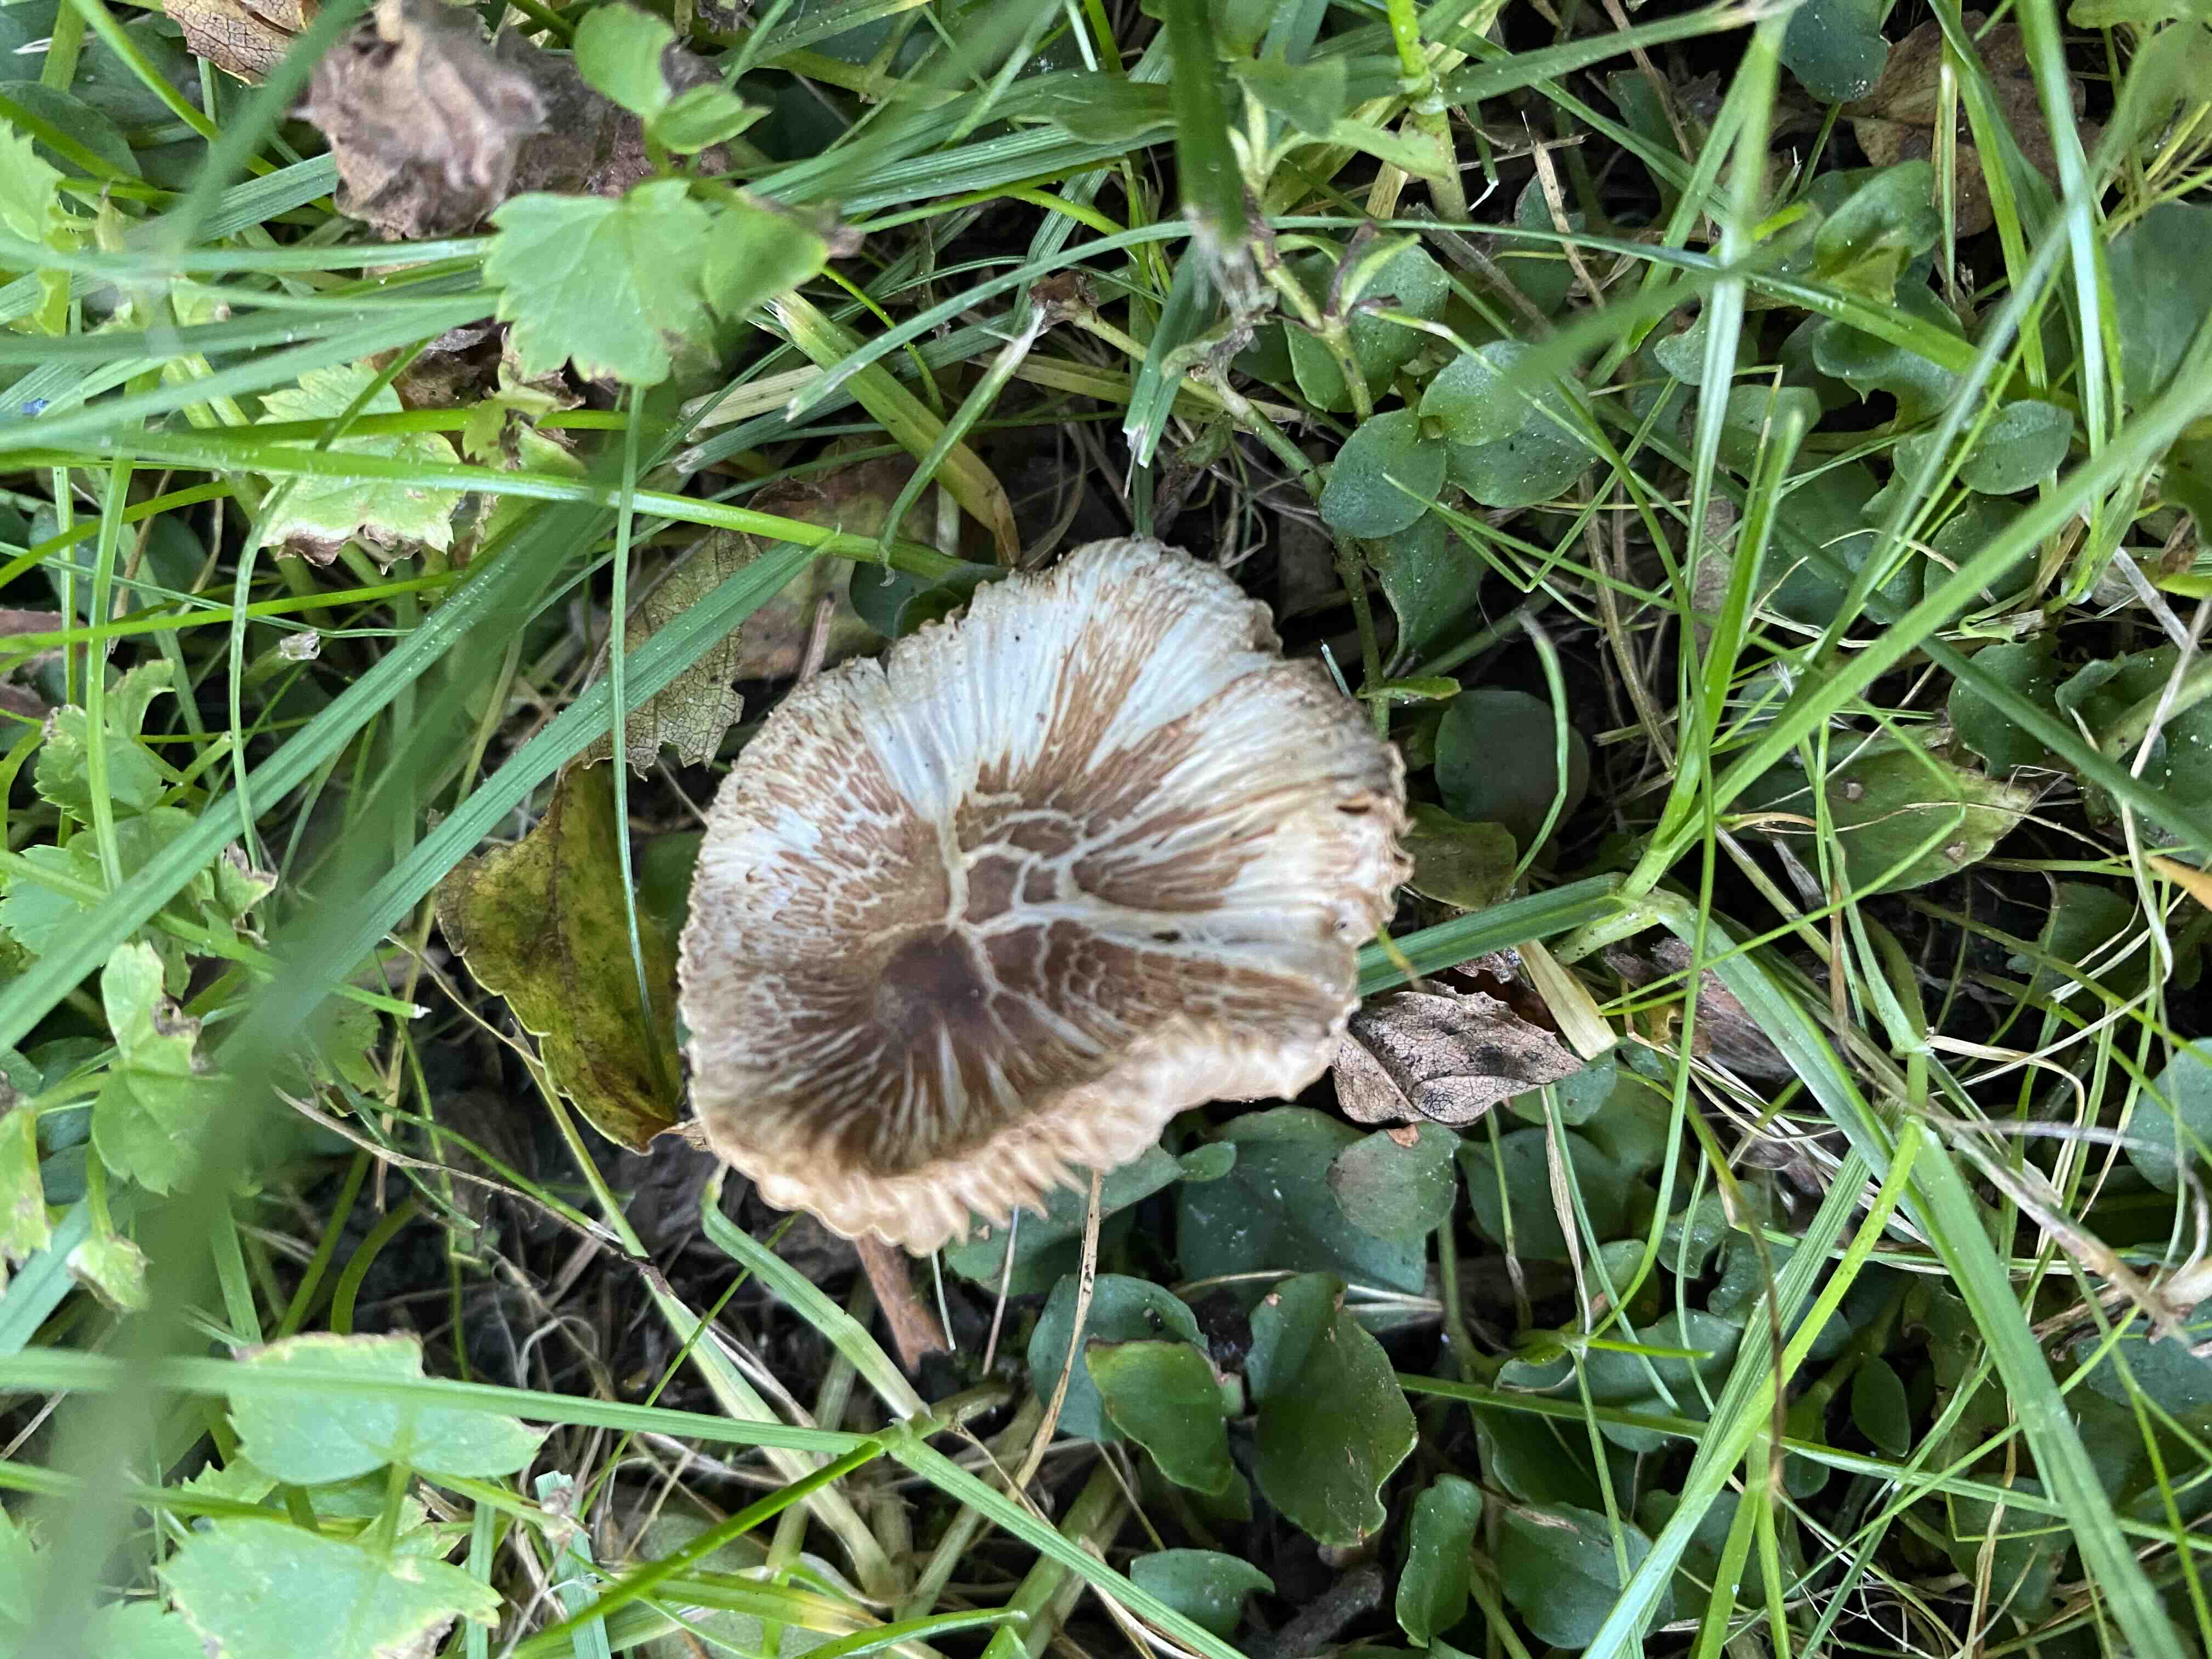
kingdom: Fungi
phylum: Basidiomycota
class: Agaricomycetes
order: Agaricales
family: Inocybaceae
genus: Inocybe
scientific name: Inocybe
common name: trævlhat
